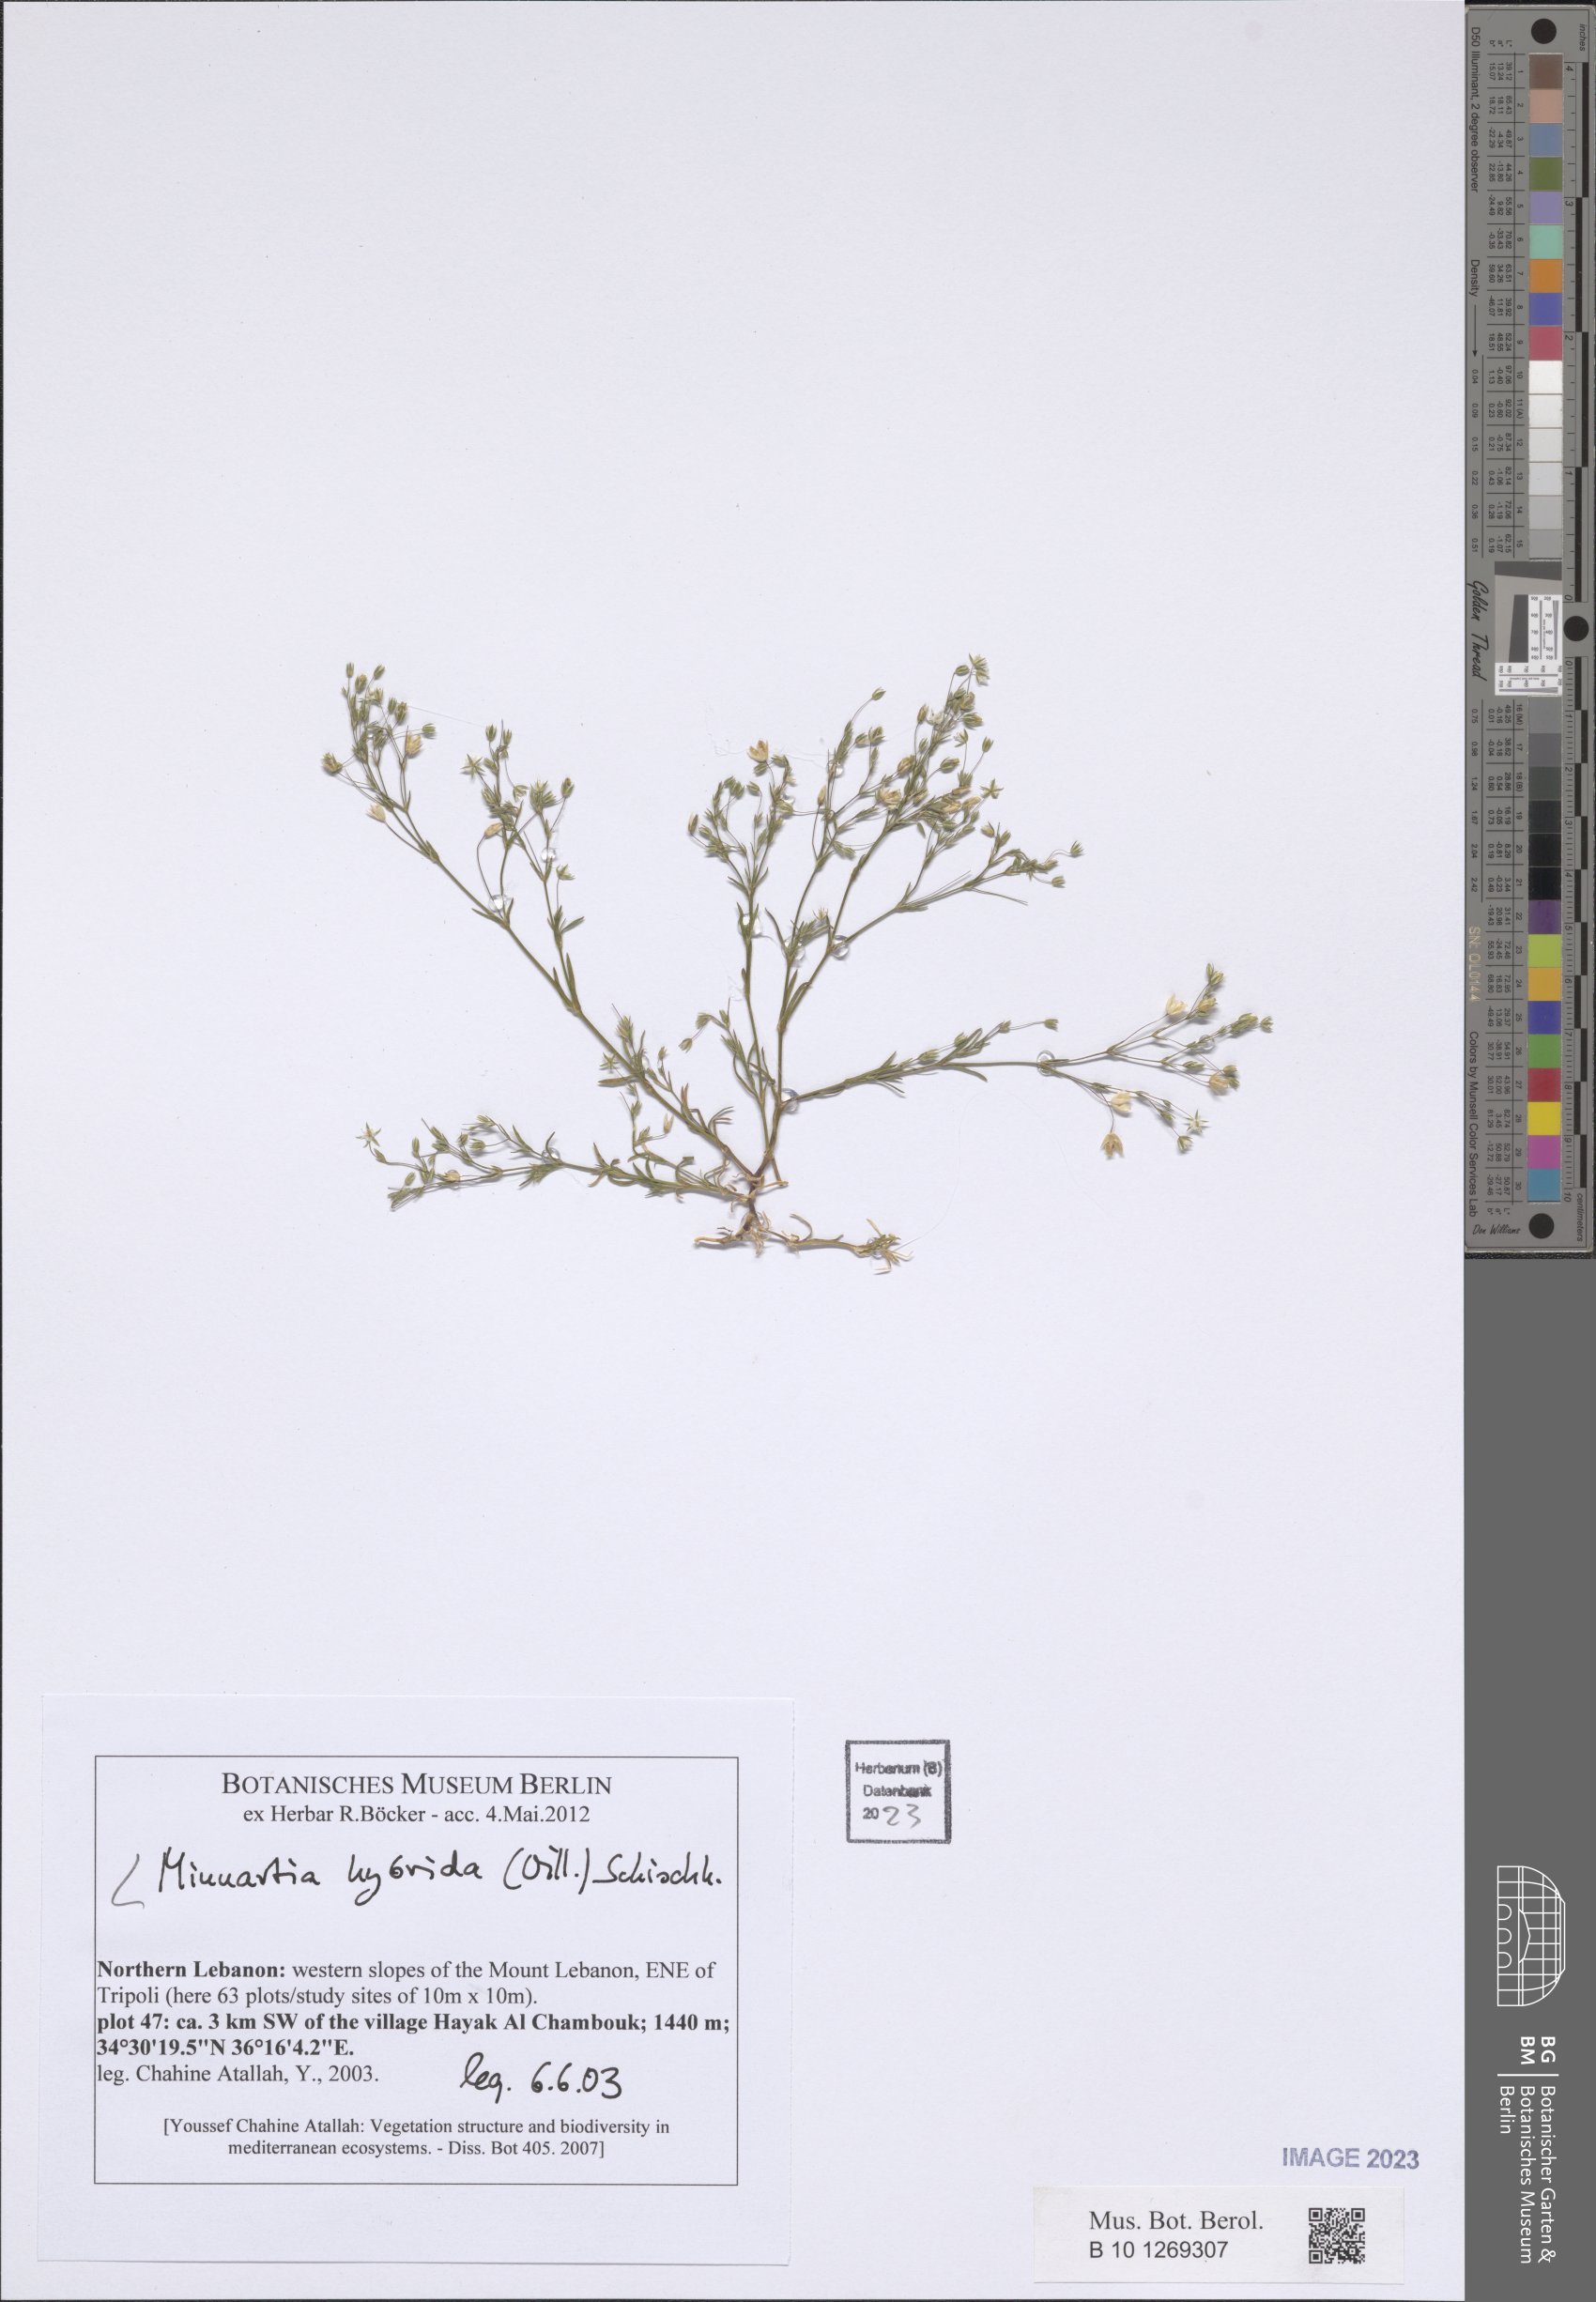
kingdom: Plantae
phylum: Tracheophyta
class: Magnoliopsida
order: Caryophyllales
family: Caryophyllaceae
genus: Sabulina
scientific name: Sabulina tenuifolia
